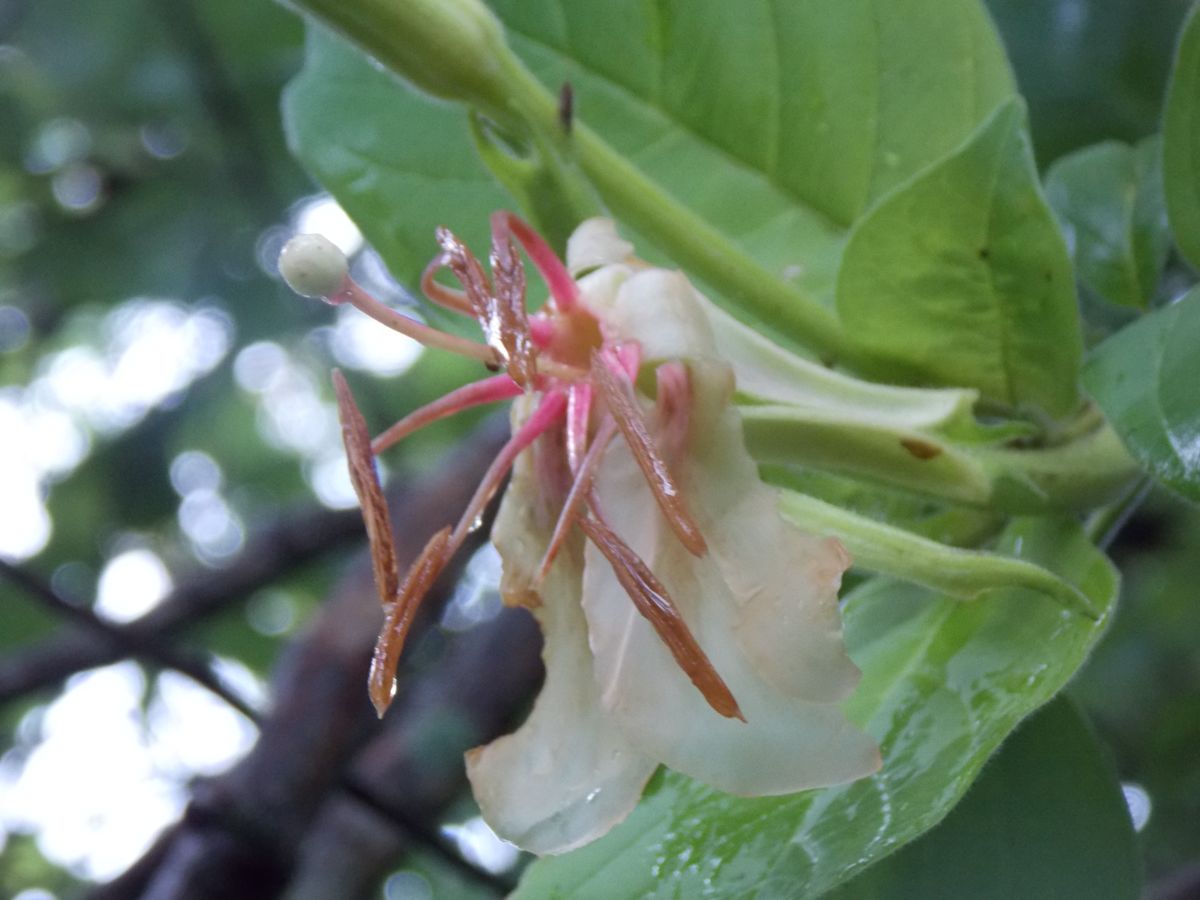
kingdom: Plantae
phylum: Tracheophyta
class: Magnoliopsida
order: Myrtales
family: Onagraceae
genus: Hauya
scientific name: Hauya elegans
